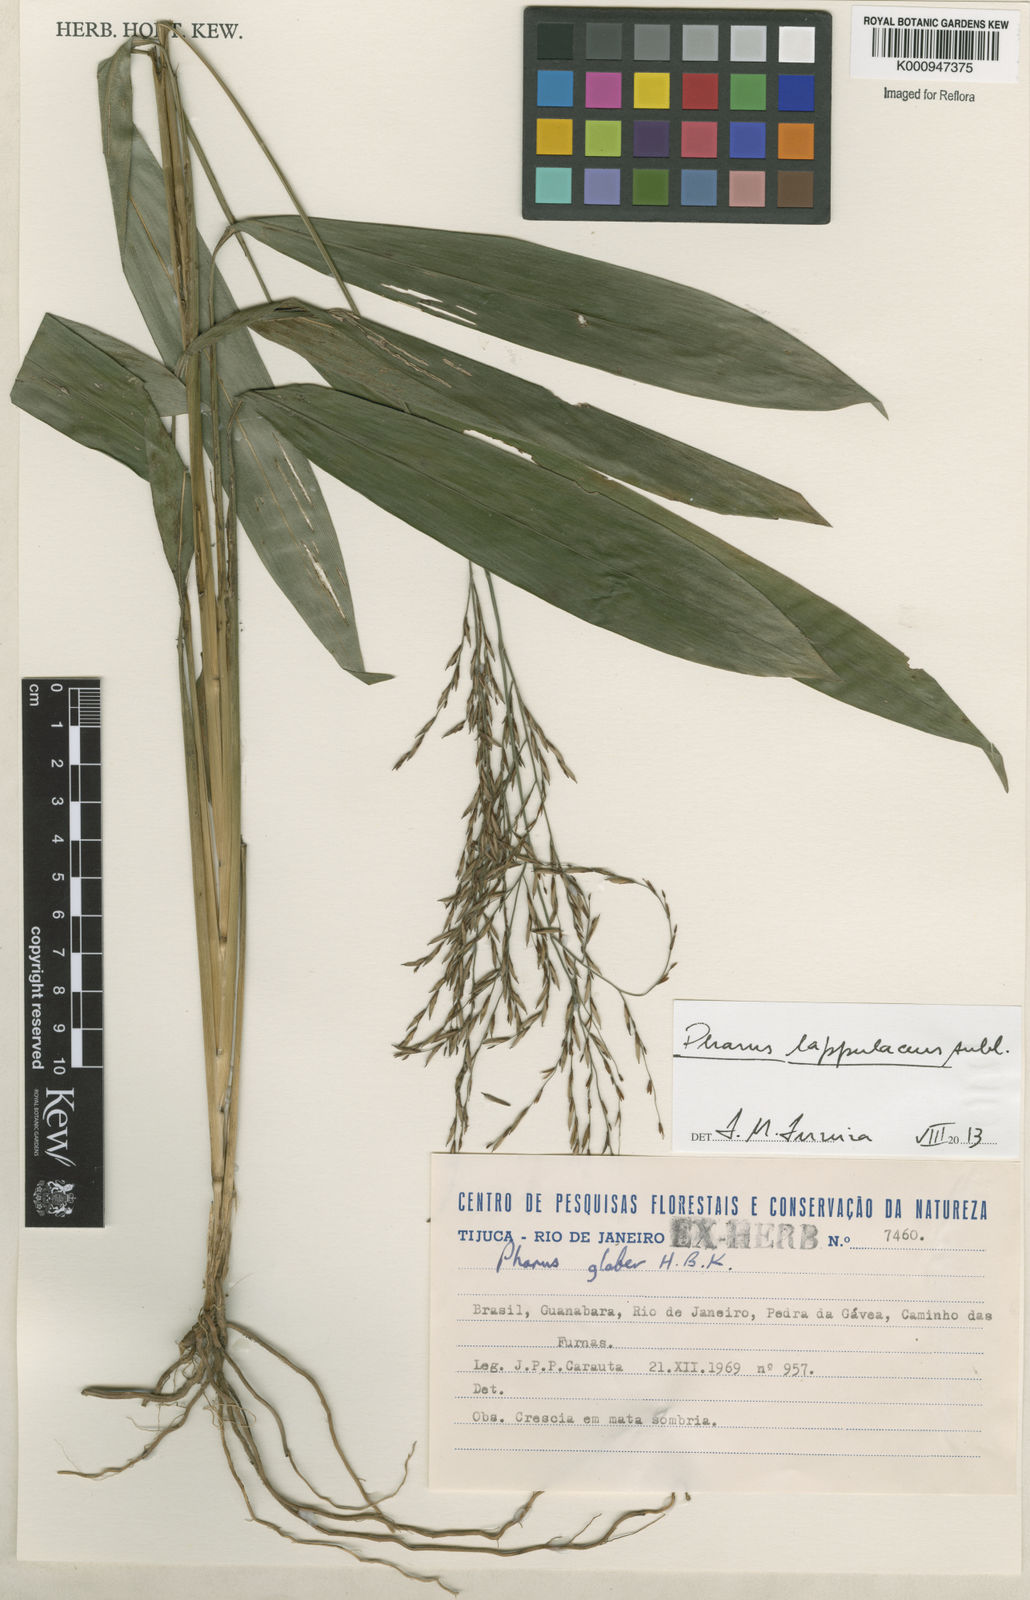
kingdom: Plantae
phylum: Tracheophyta
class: Liliopsida
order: Poales
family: Poaceae
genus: Pharus
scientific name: Pharus lappulaceus
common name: Creeping leafstalk grass
